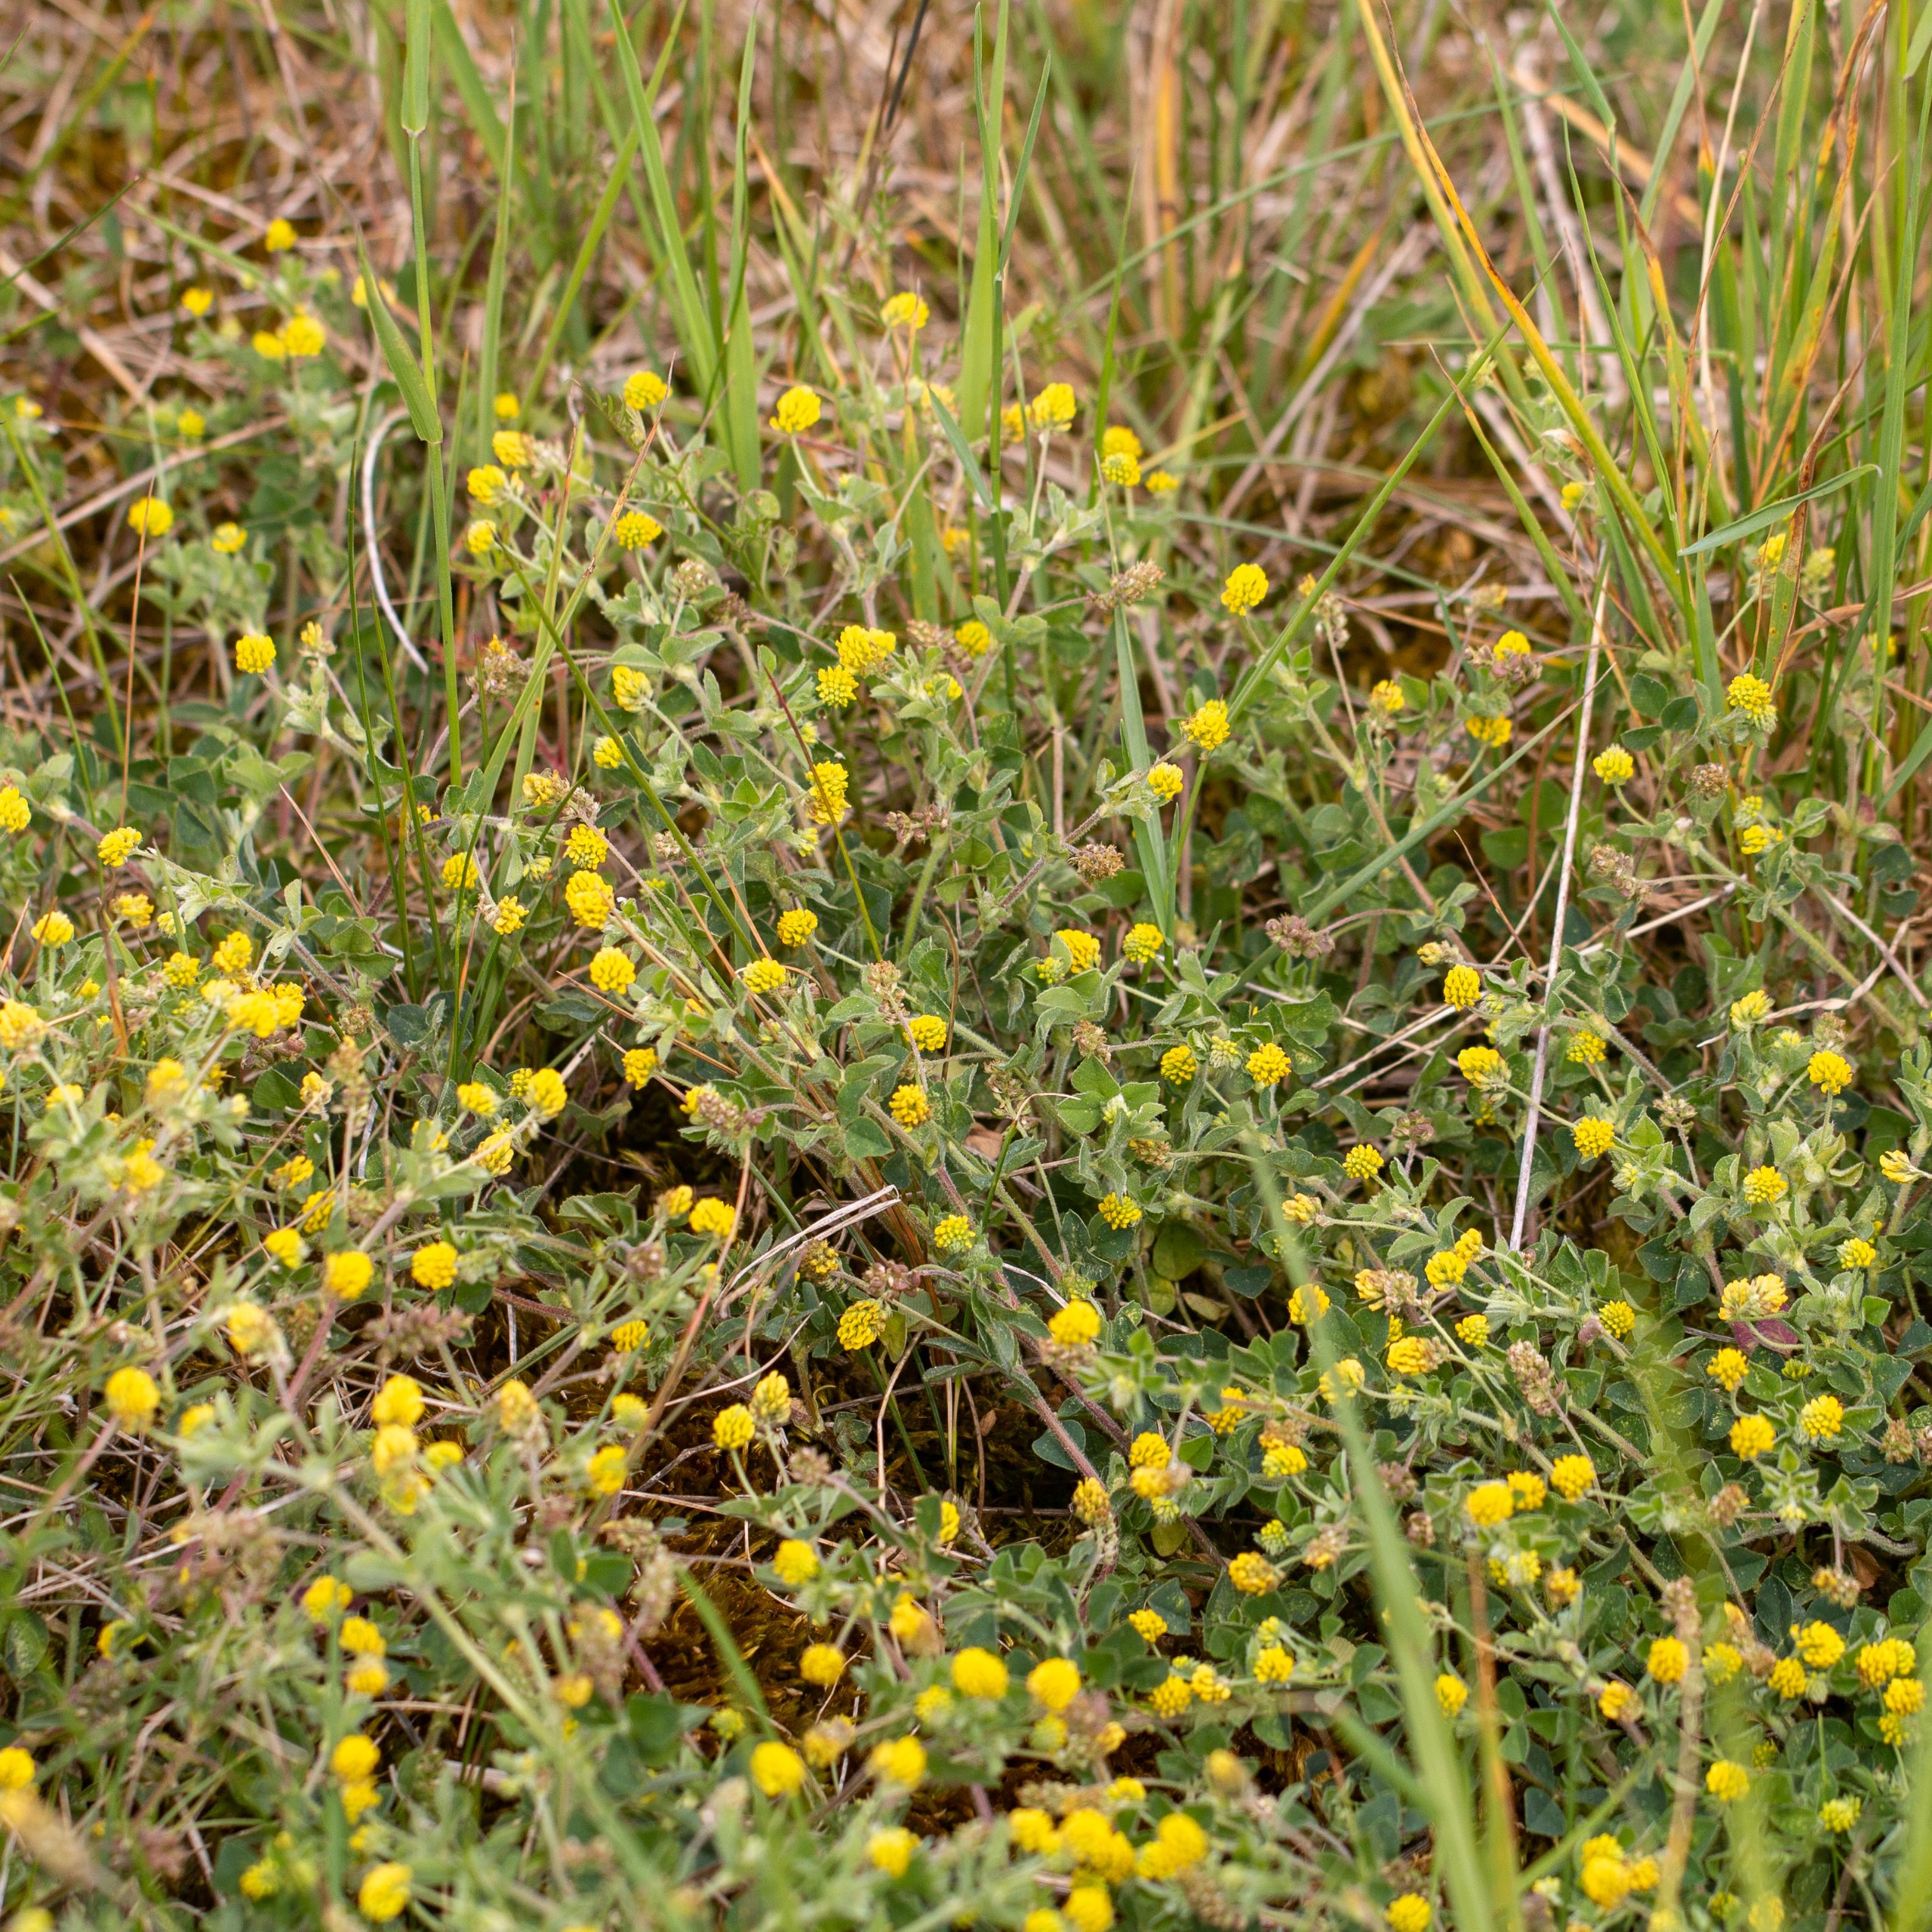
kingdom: Plantae
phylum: Tracheophyta
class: Magnoliopsida
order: Fabales
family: Fabaceae
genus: Medicago
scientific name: Medicago lupulina
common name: Humle-sneglebælg
